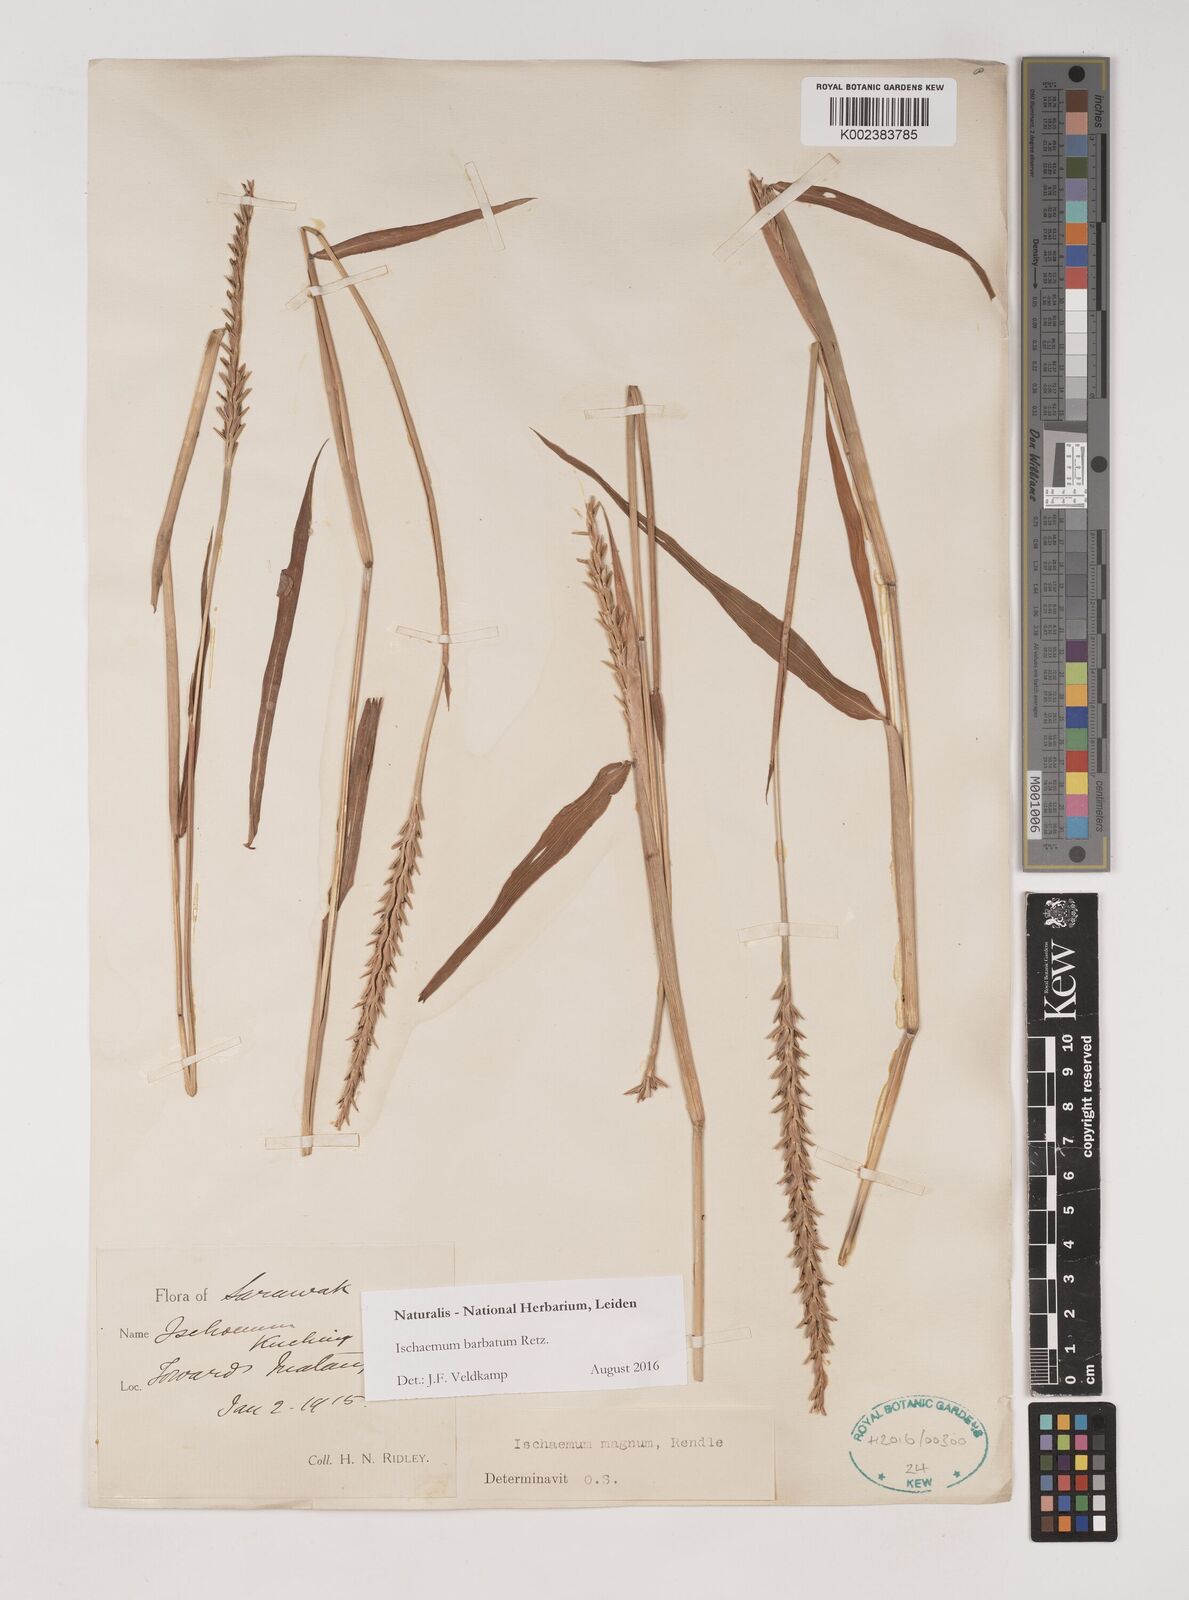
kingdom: Plantae
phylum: Tracheophyta
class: Liliopsida
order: Poales
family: Poaceae
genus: Ischaemum
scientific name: Ischaemum barbatum
